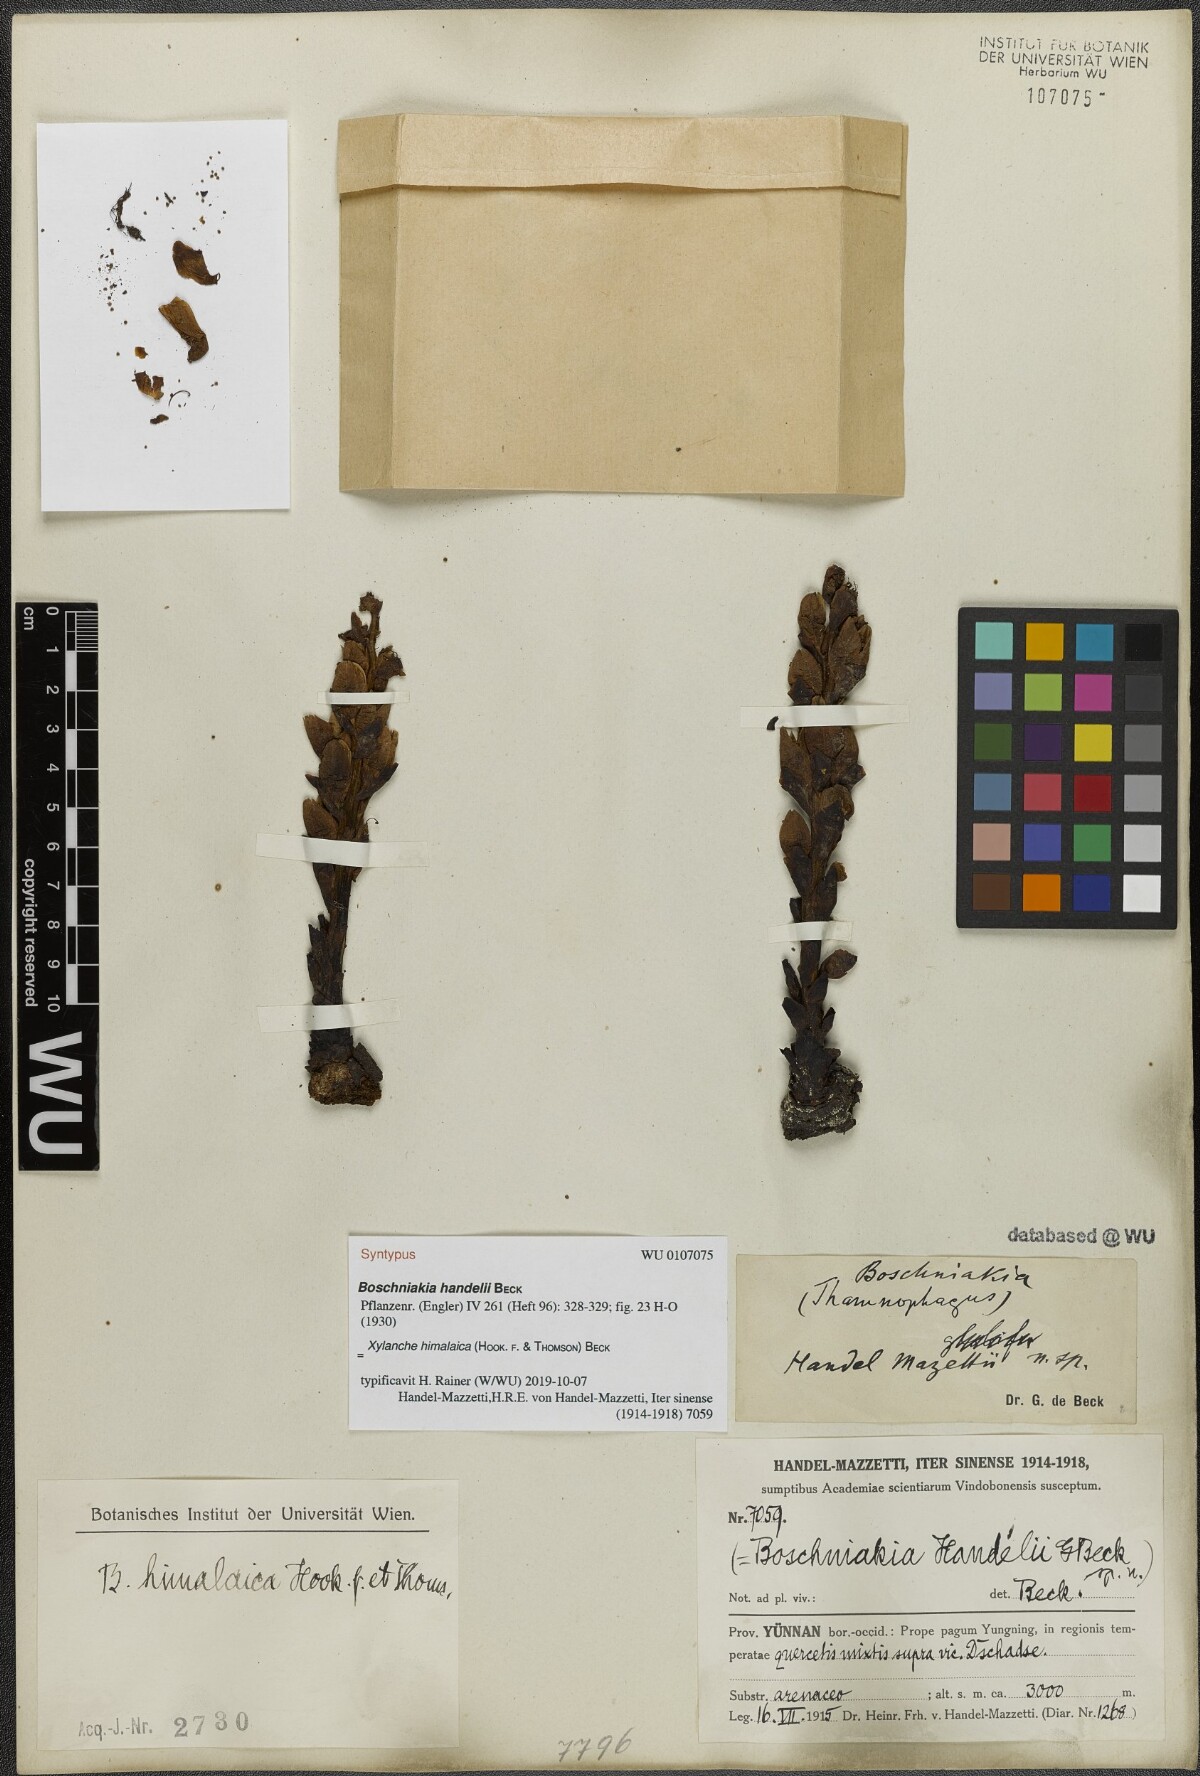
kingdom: Plantae
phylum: Tracheophyta
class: Magnoliopsida
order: Lamiales
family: Orobanchaceae
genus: Boschniakia
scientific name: Boschniakia himalaica
